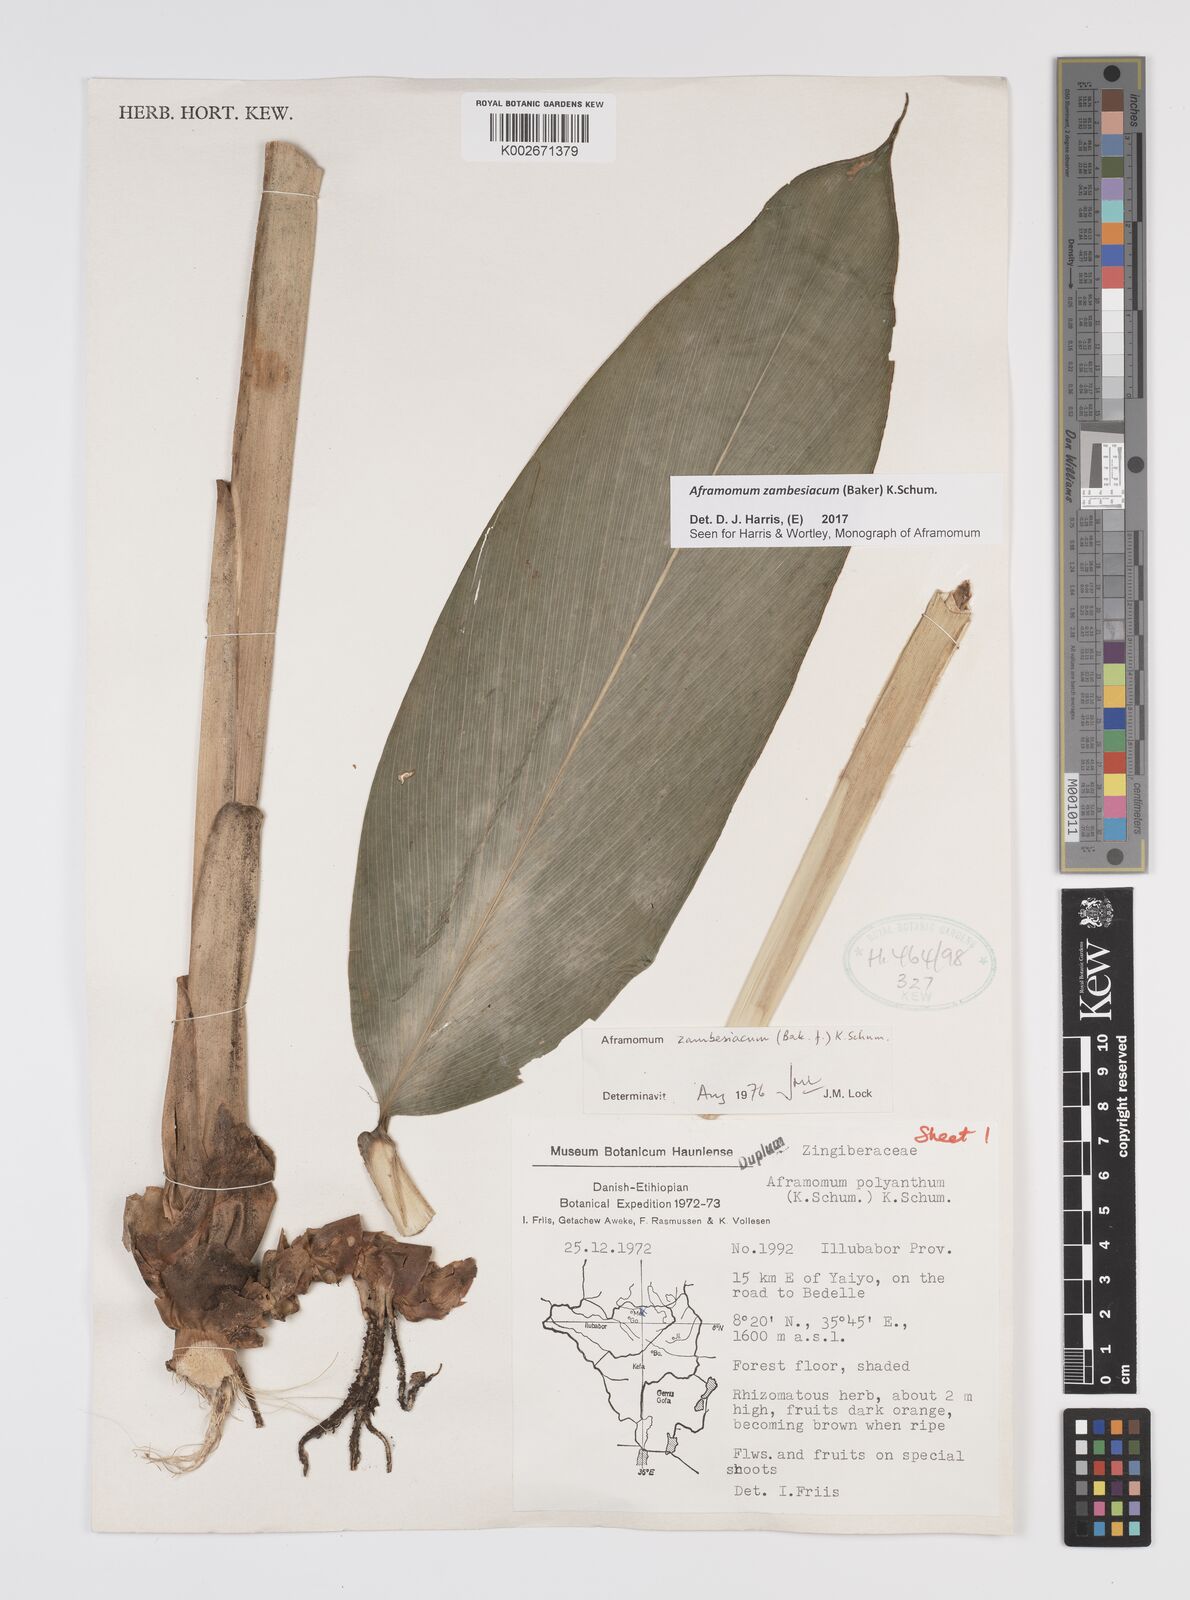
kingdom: Plantae
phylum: Tracheophyta
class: Liliopsida
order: Zingiberales
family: Zingiberaceae
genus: Aframomum
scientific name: Aframomum zambesiacum
